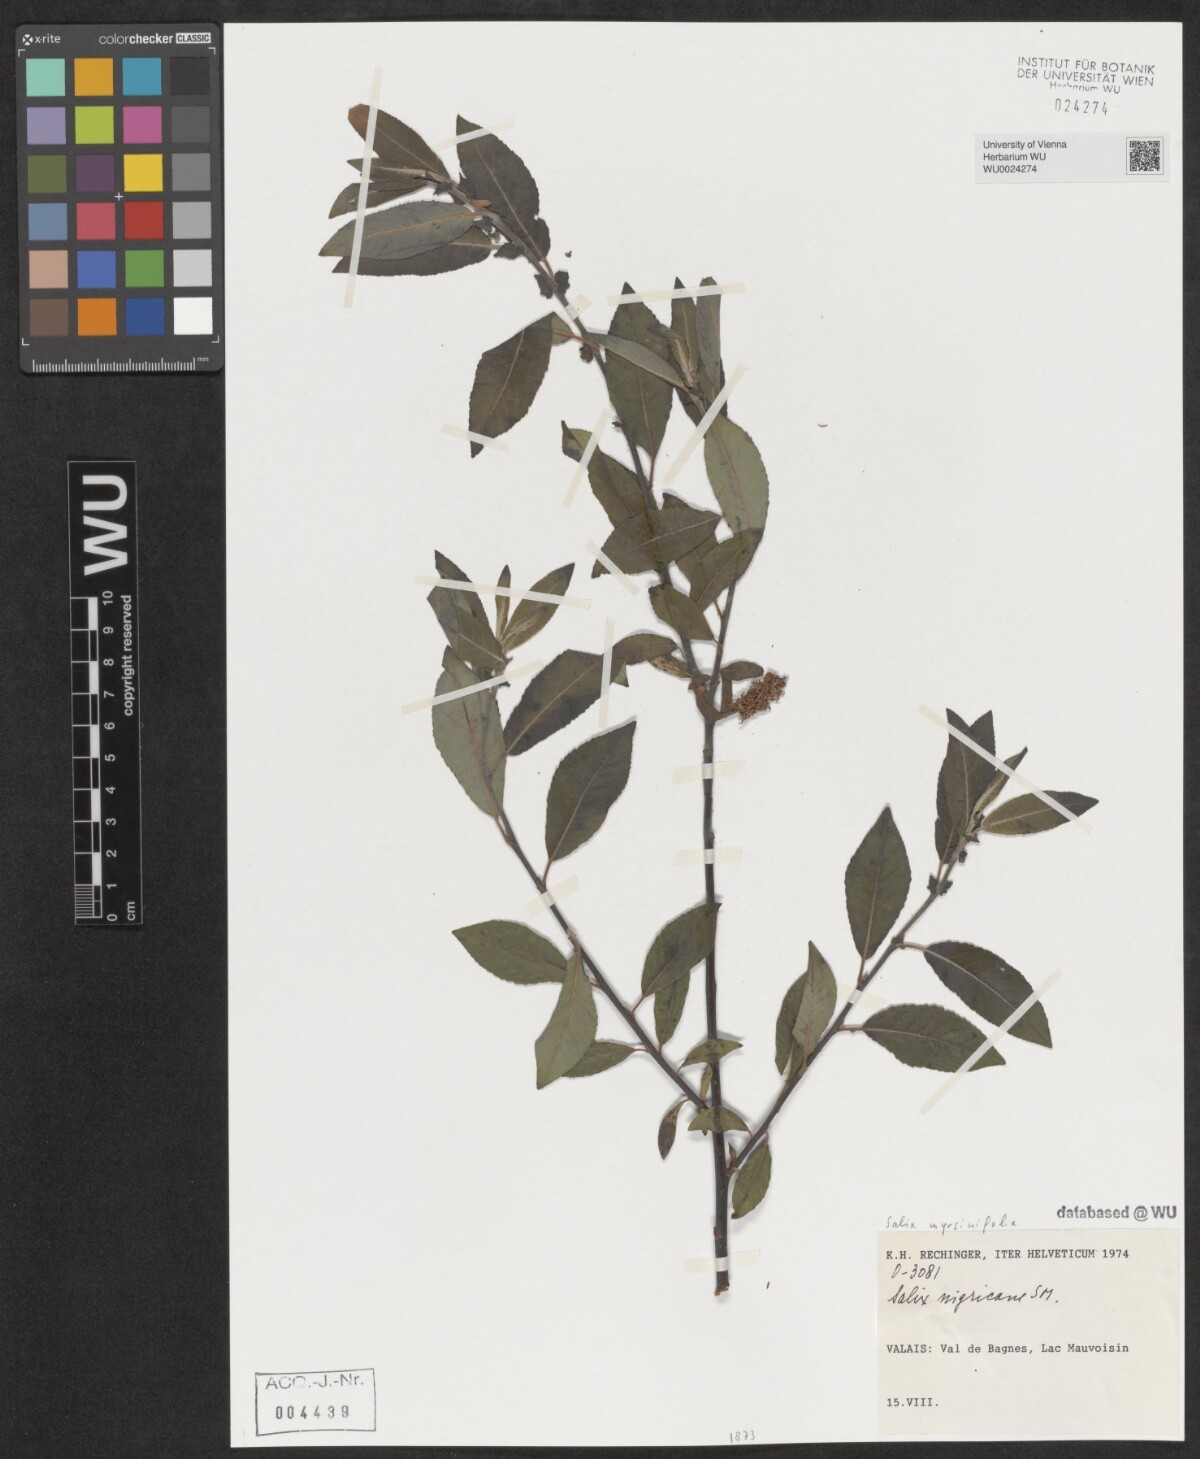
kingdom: Plantae
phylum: Tracheophyta
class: Magnoliopsida
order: Malpighiales
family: Salicaceae
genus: Salix
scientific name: Salix myrsinifolia
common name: Dark-leaved willow
